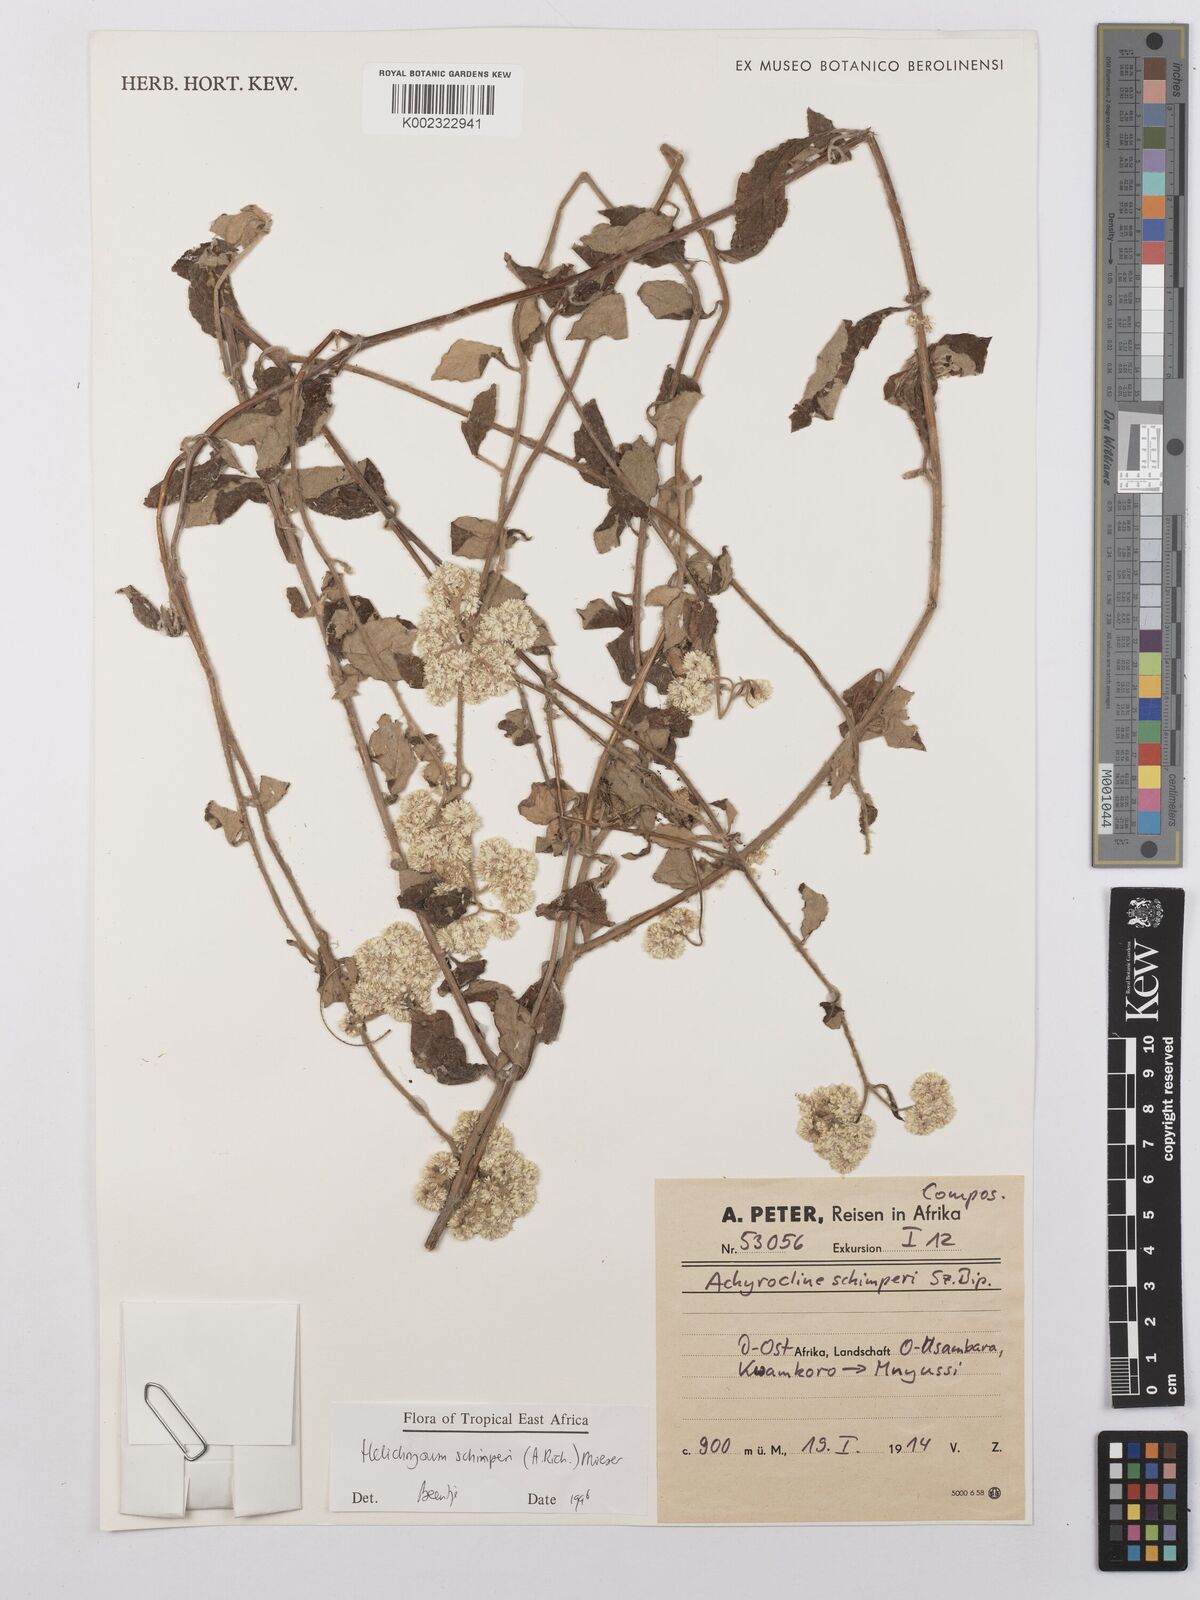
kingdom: Plantae
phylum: Tracheophyta
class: Magnoliopsida
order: Asterales
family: Asteraceae
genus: Helichrysum
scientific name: Helichrysum schimperi
